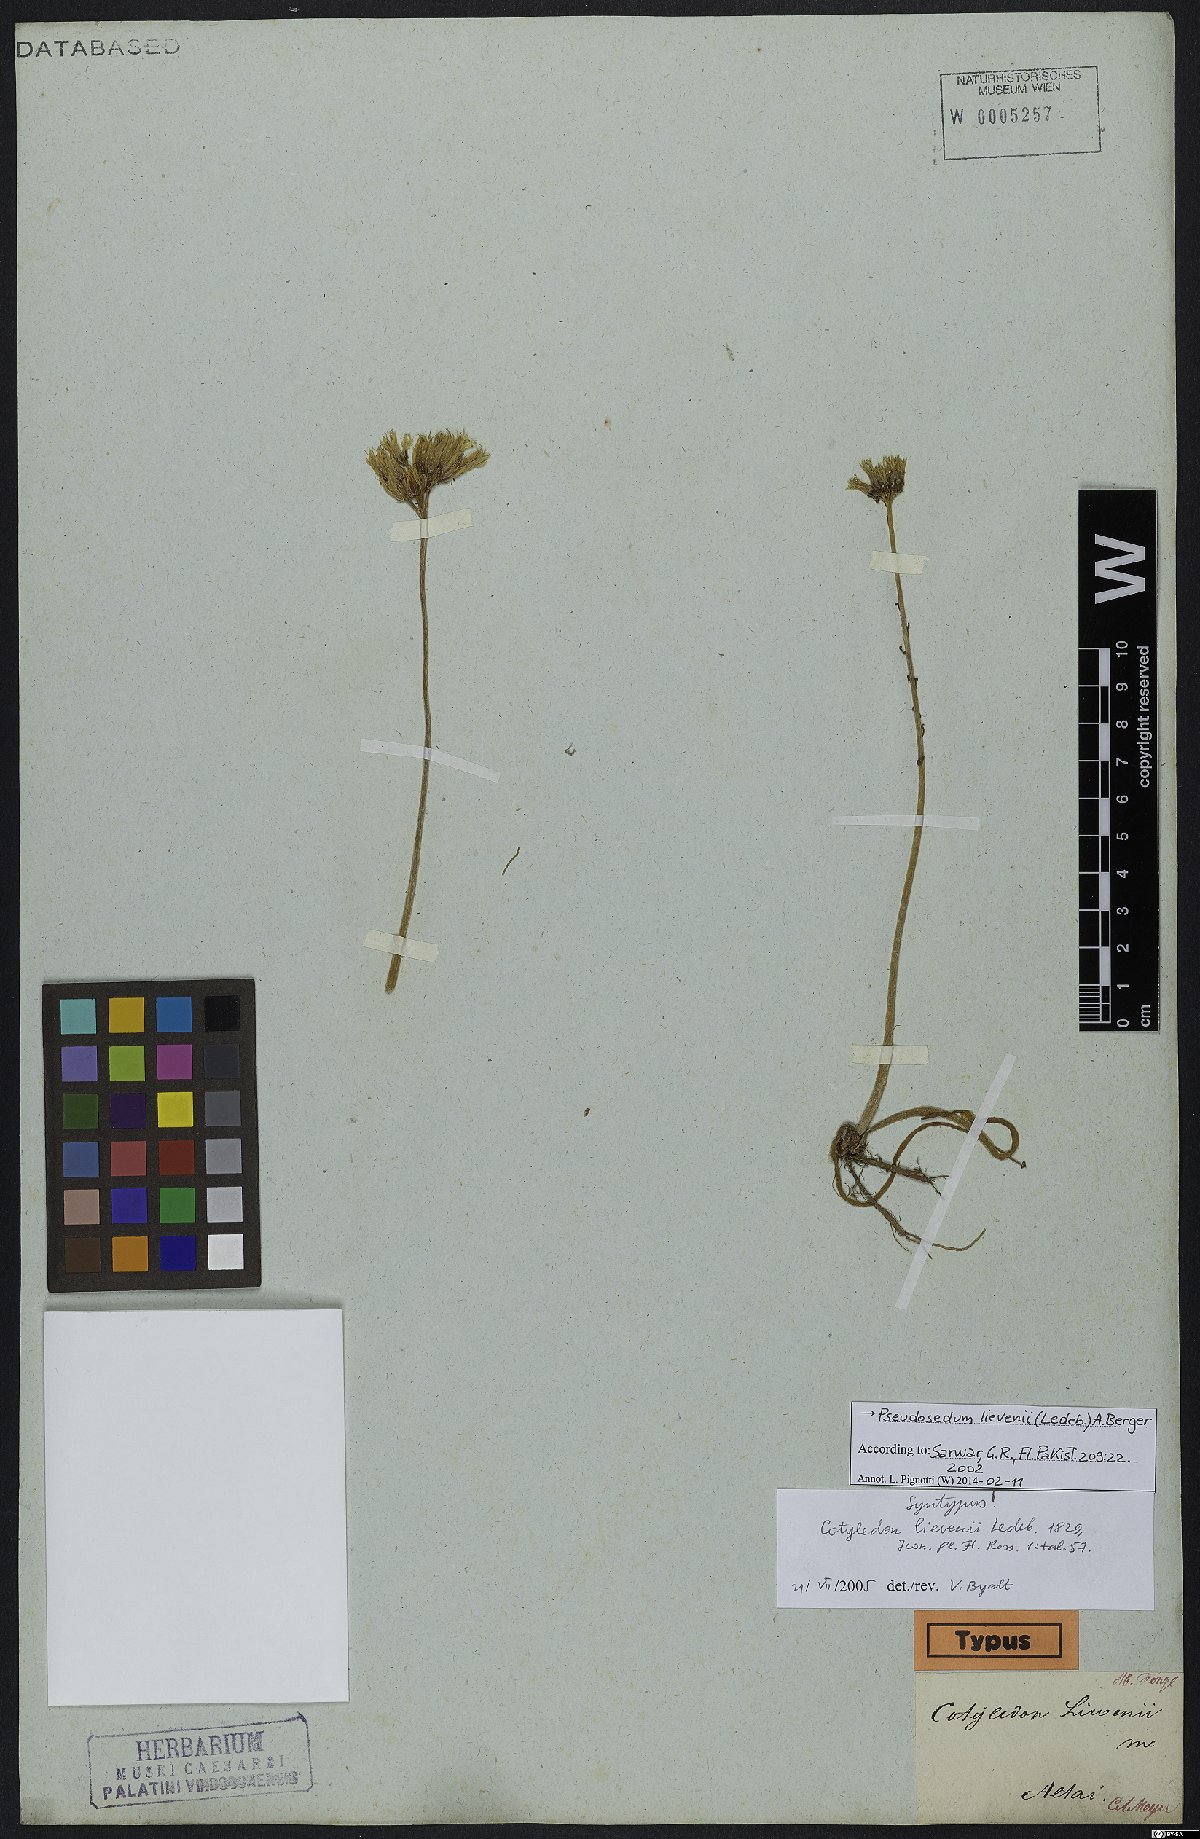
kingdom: Plantae
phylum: Tracheophyta
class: Magnoliopsida
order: Saxifragales
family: Crassulaceae
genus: Pseudosedum
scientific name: Pseudosedum lievenii
